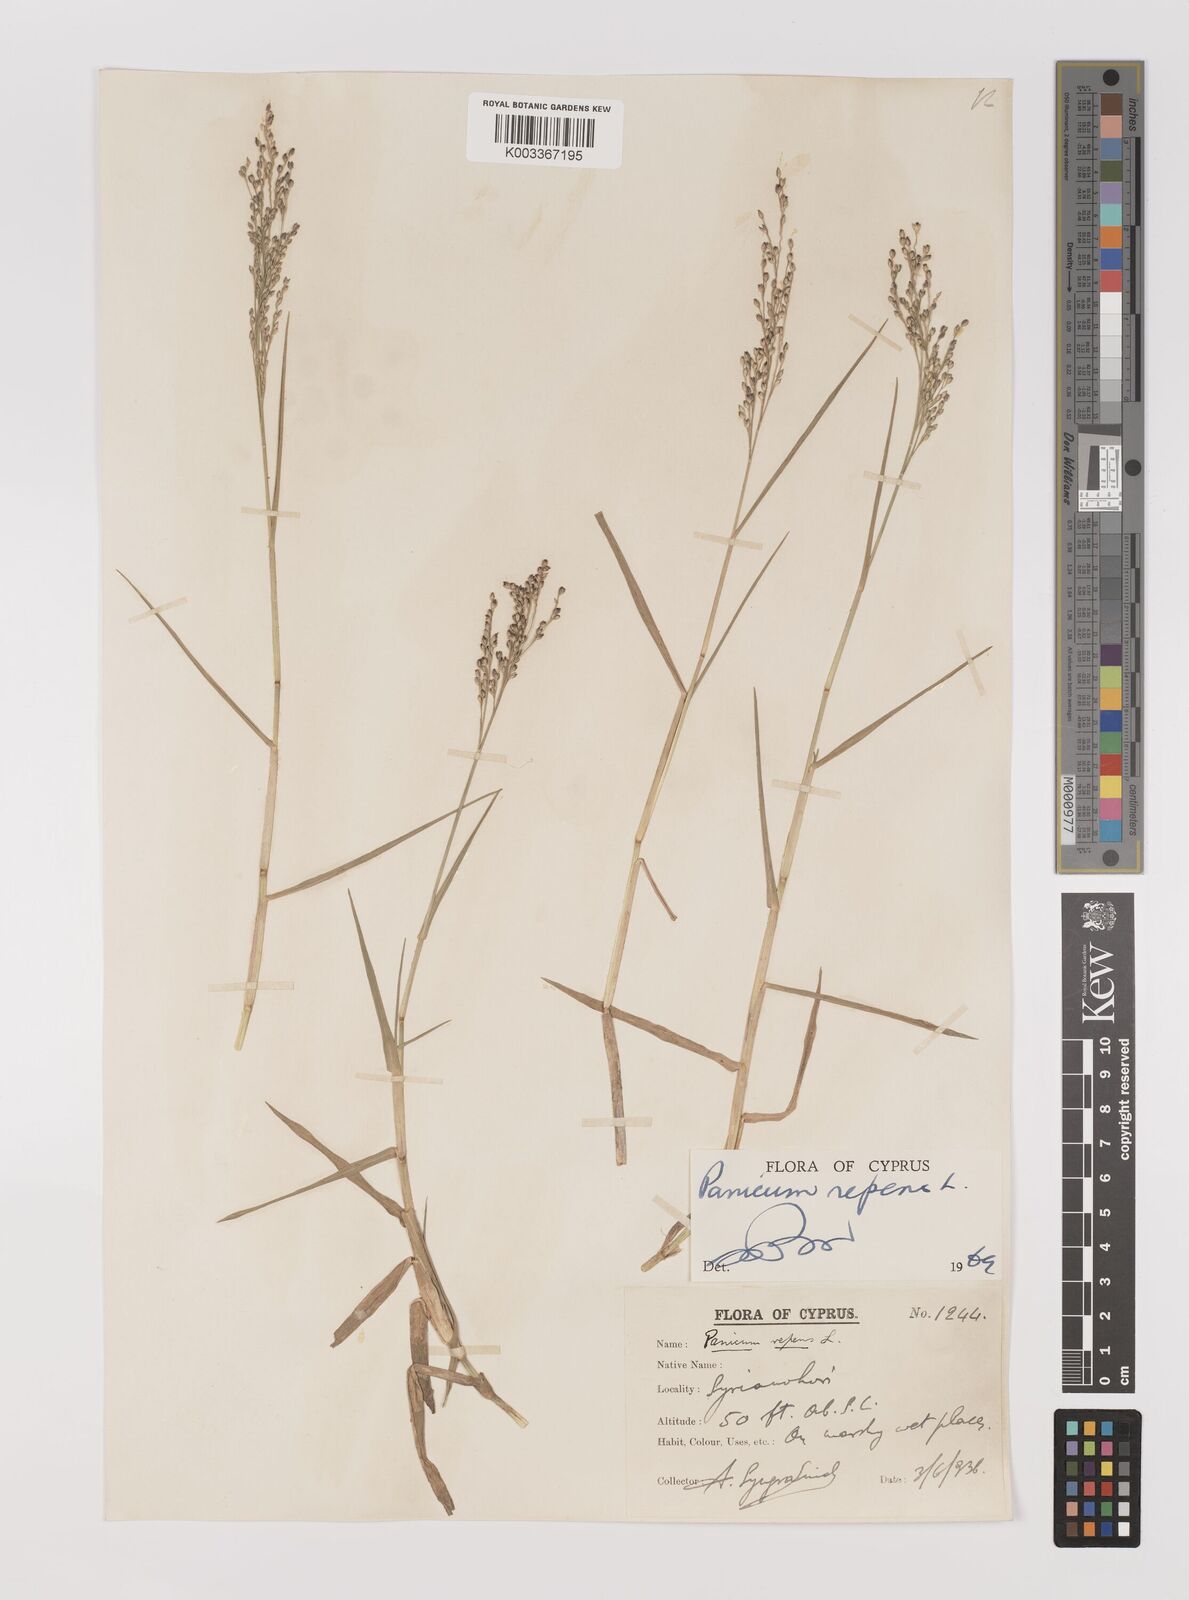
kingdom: Plantae
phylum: Tracheophyta
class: Liliopsida
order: Poales
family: Poaceae
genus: Panicum
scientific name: Panicum repens
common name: Torpedo grass
